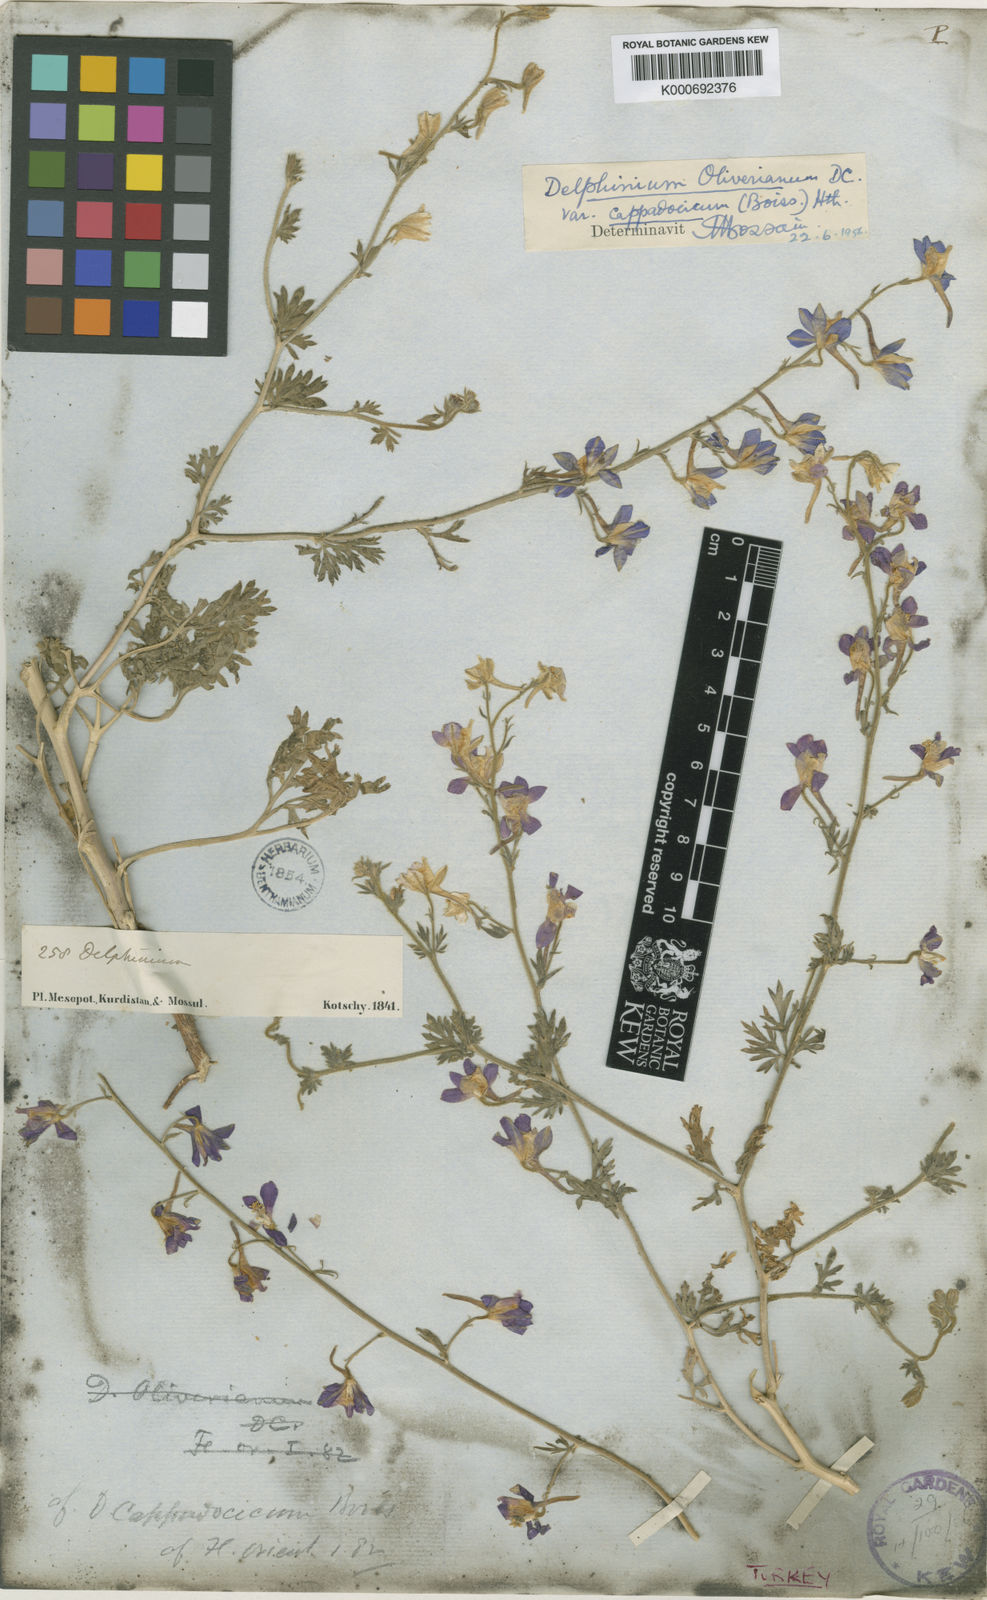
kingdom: Plantae
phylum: Tracheophyta
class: Magnoliopsida
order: Ranunculales
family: Ranunculaceae
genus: Delphinium
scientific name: Delphinium
